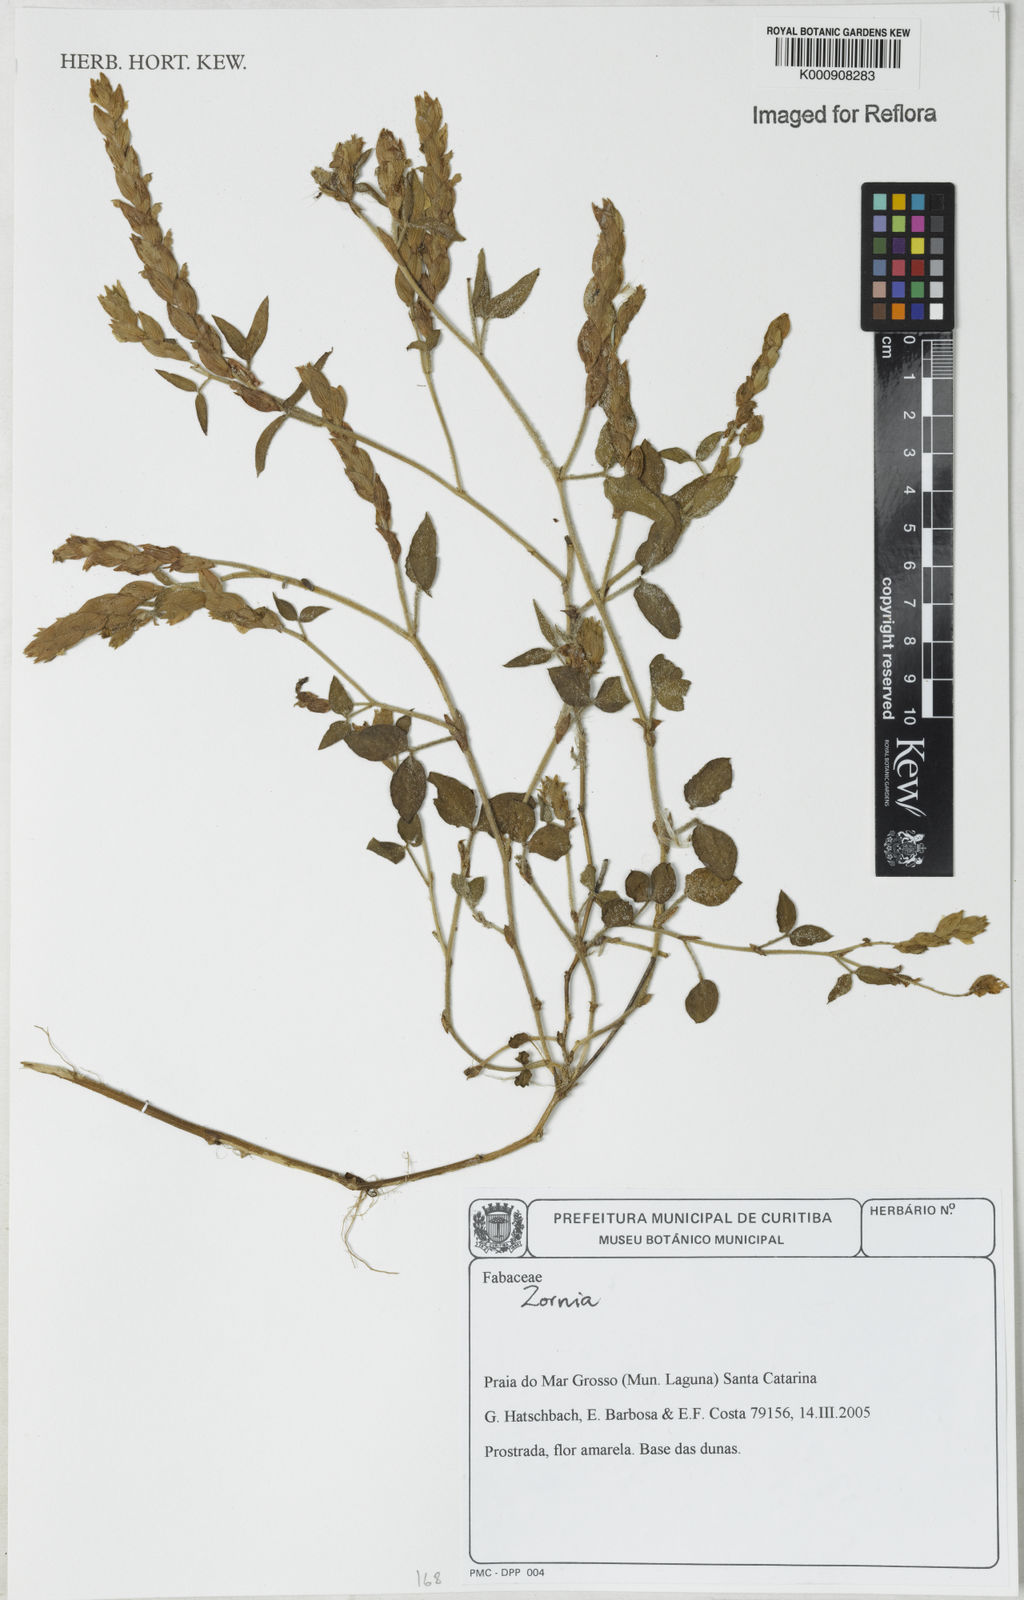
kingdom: Plantae
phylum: Tracheophyta
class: Magnoliopsida
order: Fabales
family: Fabaceae
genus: Zornia
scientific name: Zornia
